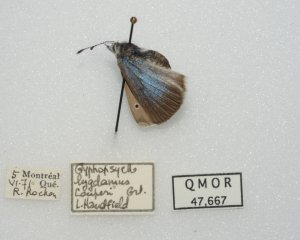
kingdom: Animalia
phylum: Arthropoda
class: Insecta
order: Lepidoptera
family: Lycaenidae
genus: Glaucopsyche
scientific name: Glaucopsyche lygdamus
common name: Silvery Blue
